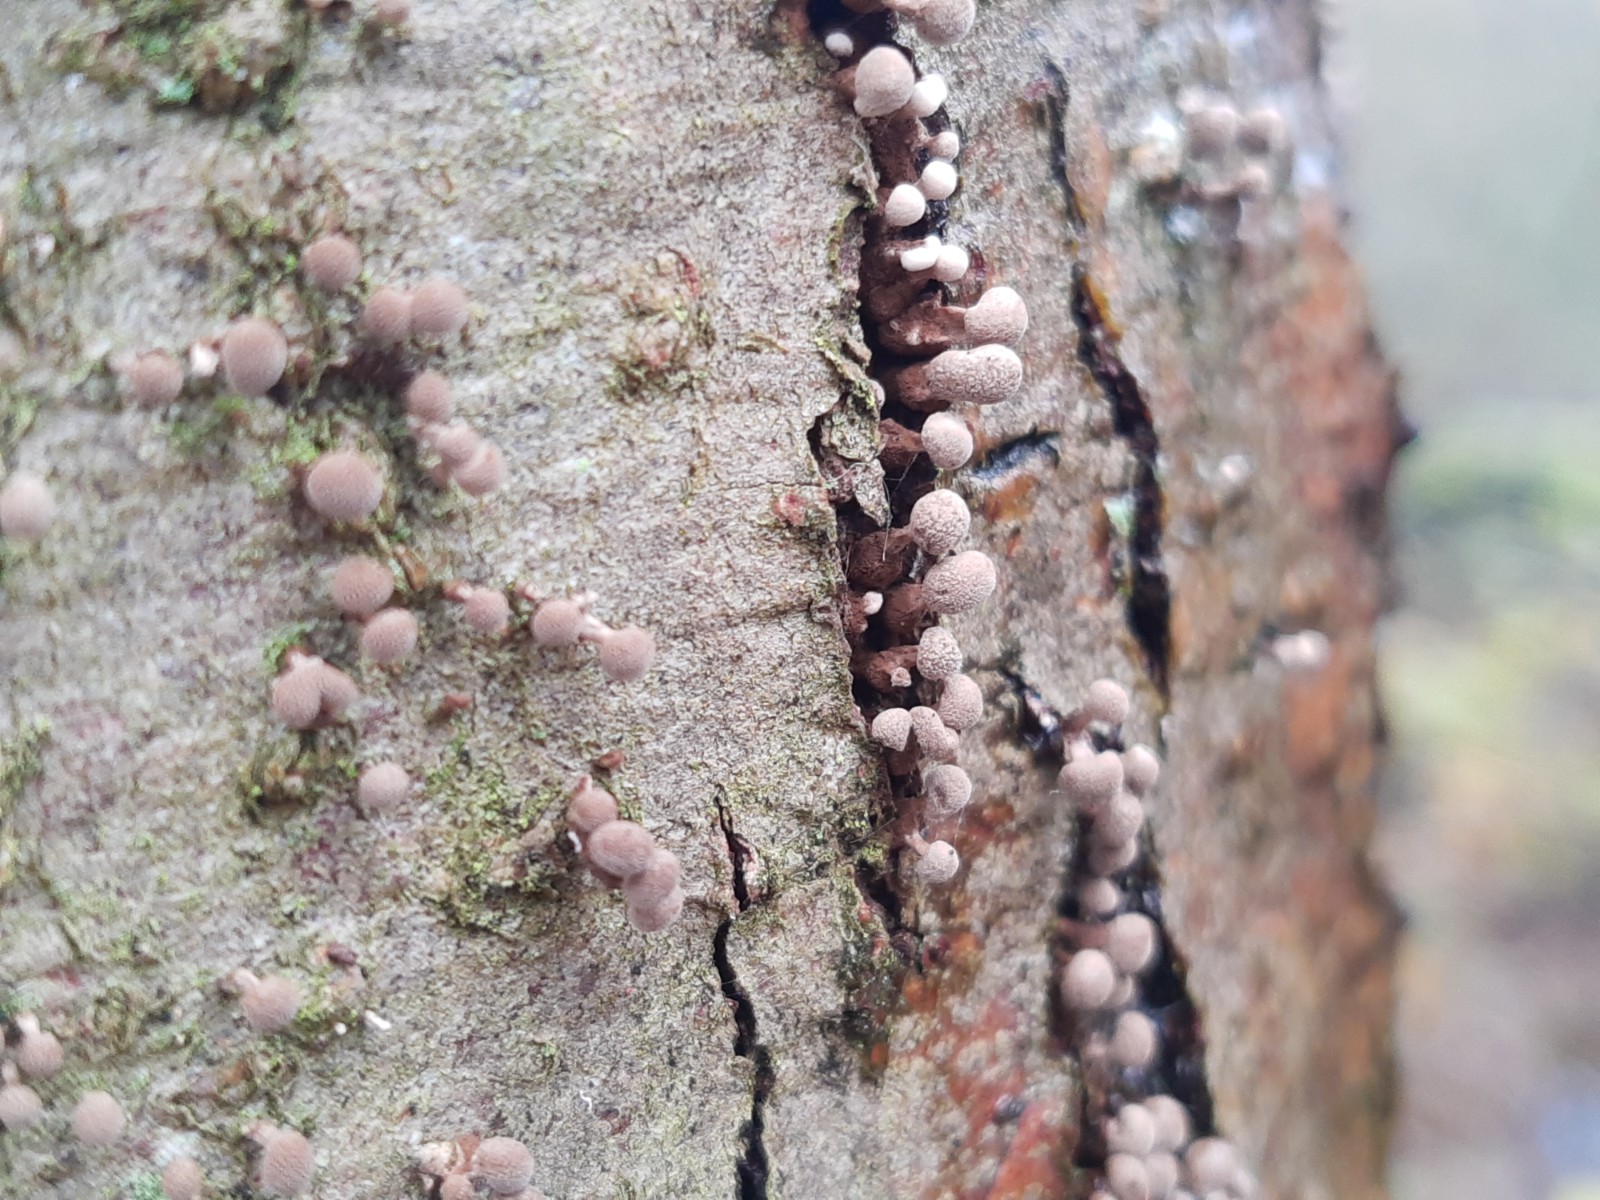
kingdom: Fungi
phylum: Basidiomycota
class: Atractiellomycetes
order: Atractiellales
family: Phleogenaceae
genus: Phleogena
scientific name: Phleogena faginea
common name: pudderkølle
